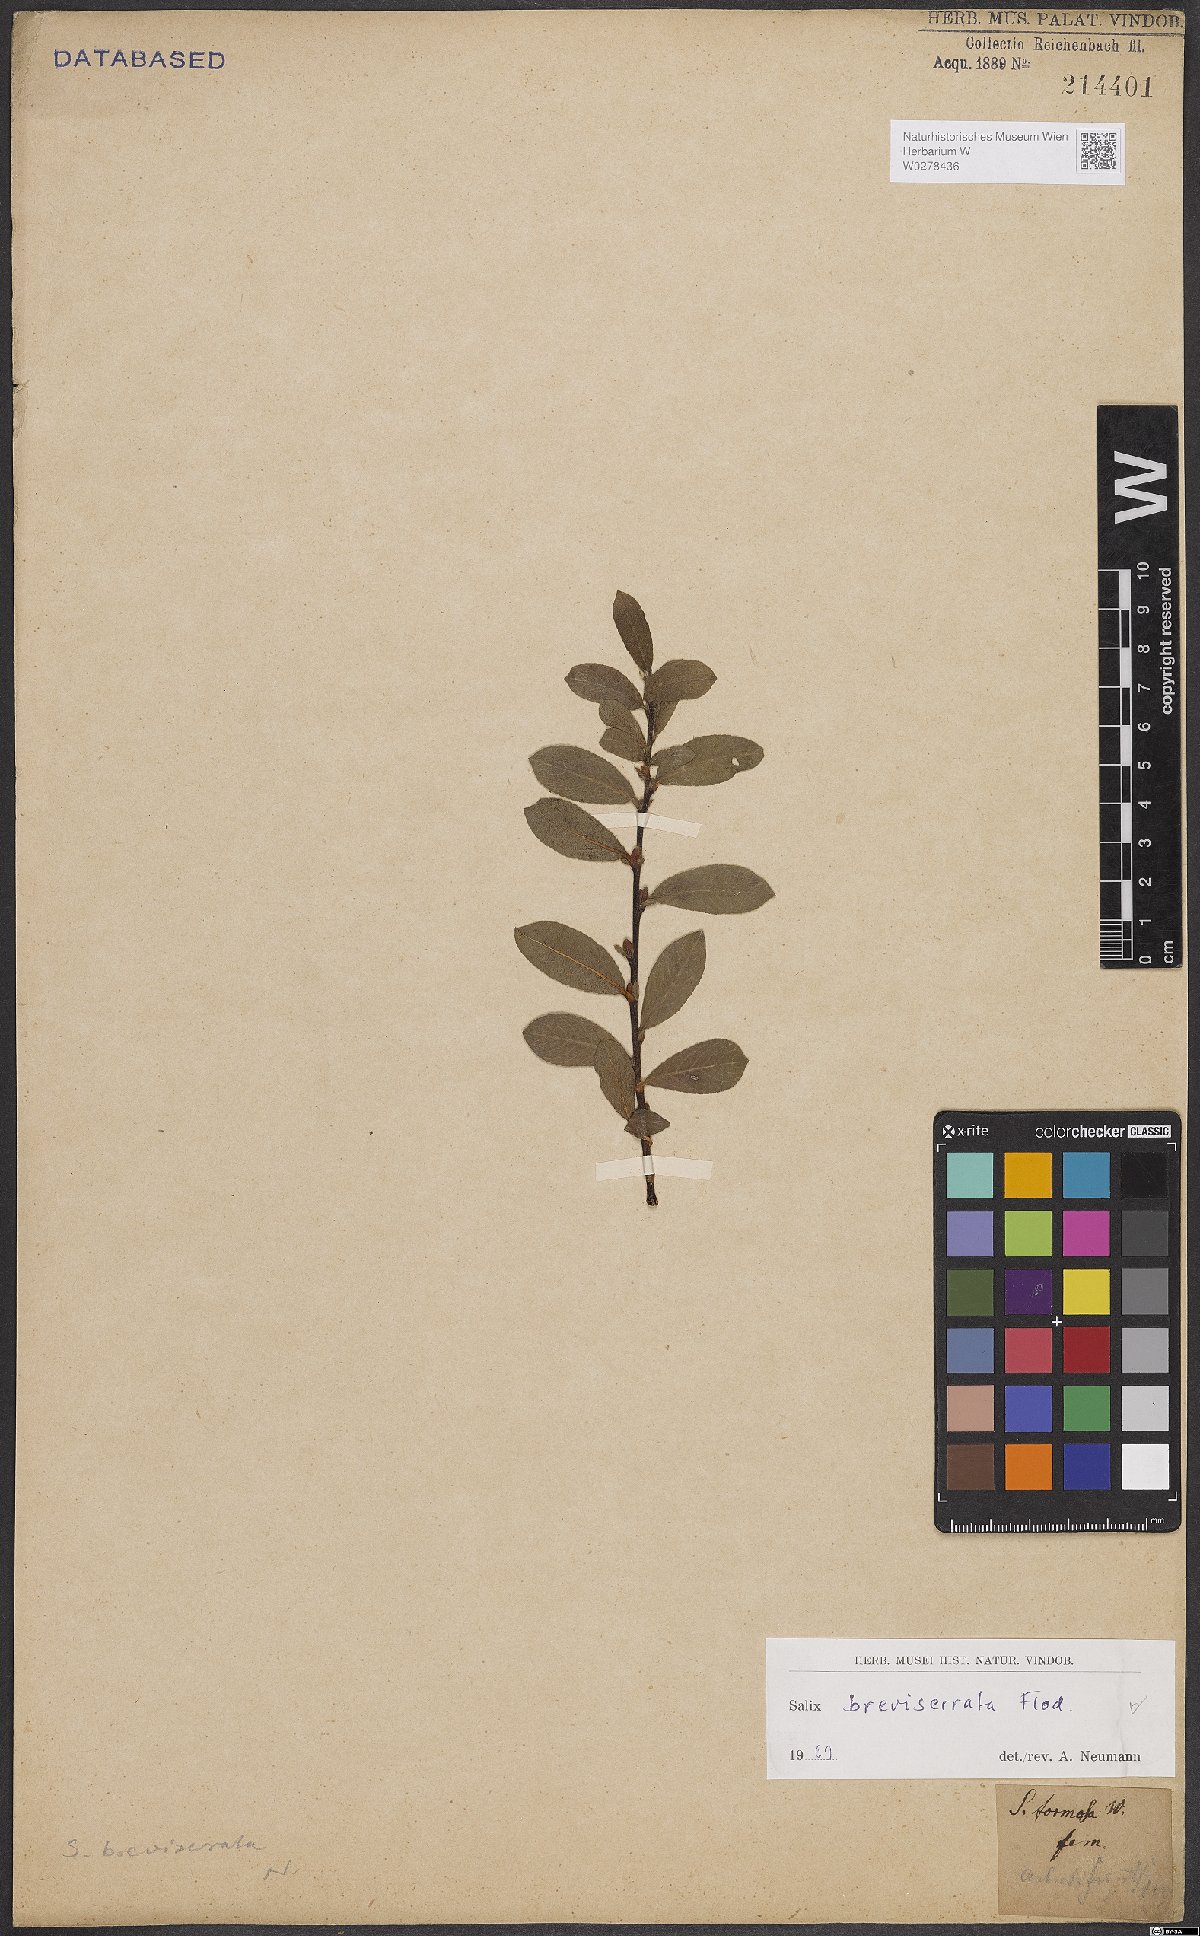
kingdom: Plantae
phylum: Tracheophyta
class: Magnoliopsida
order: Malpighiales
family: Salicaceae
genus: Salix
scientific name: Salix breviserrata
